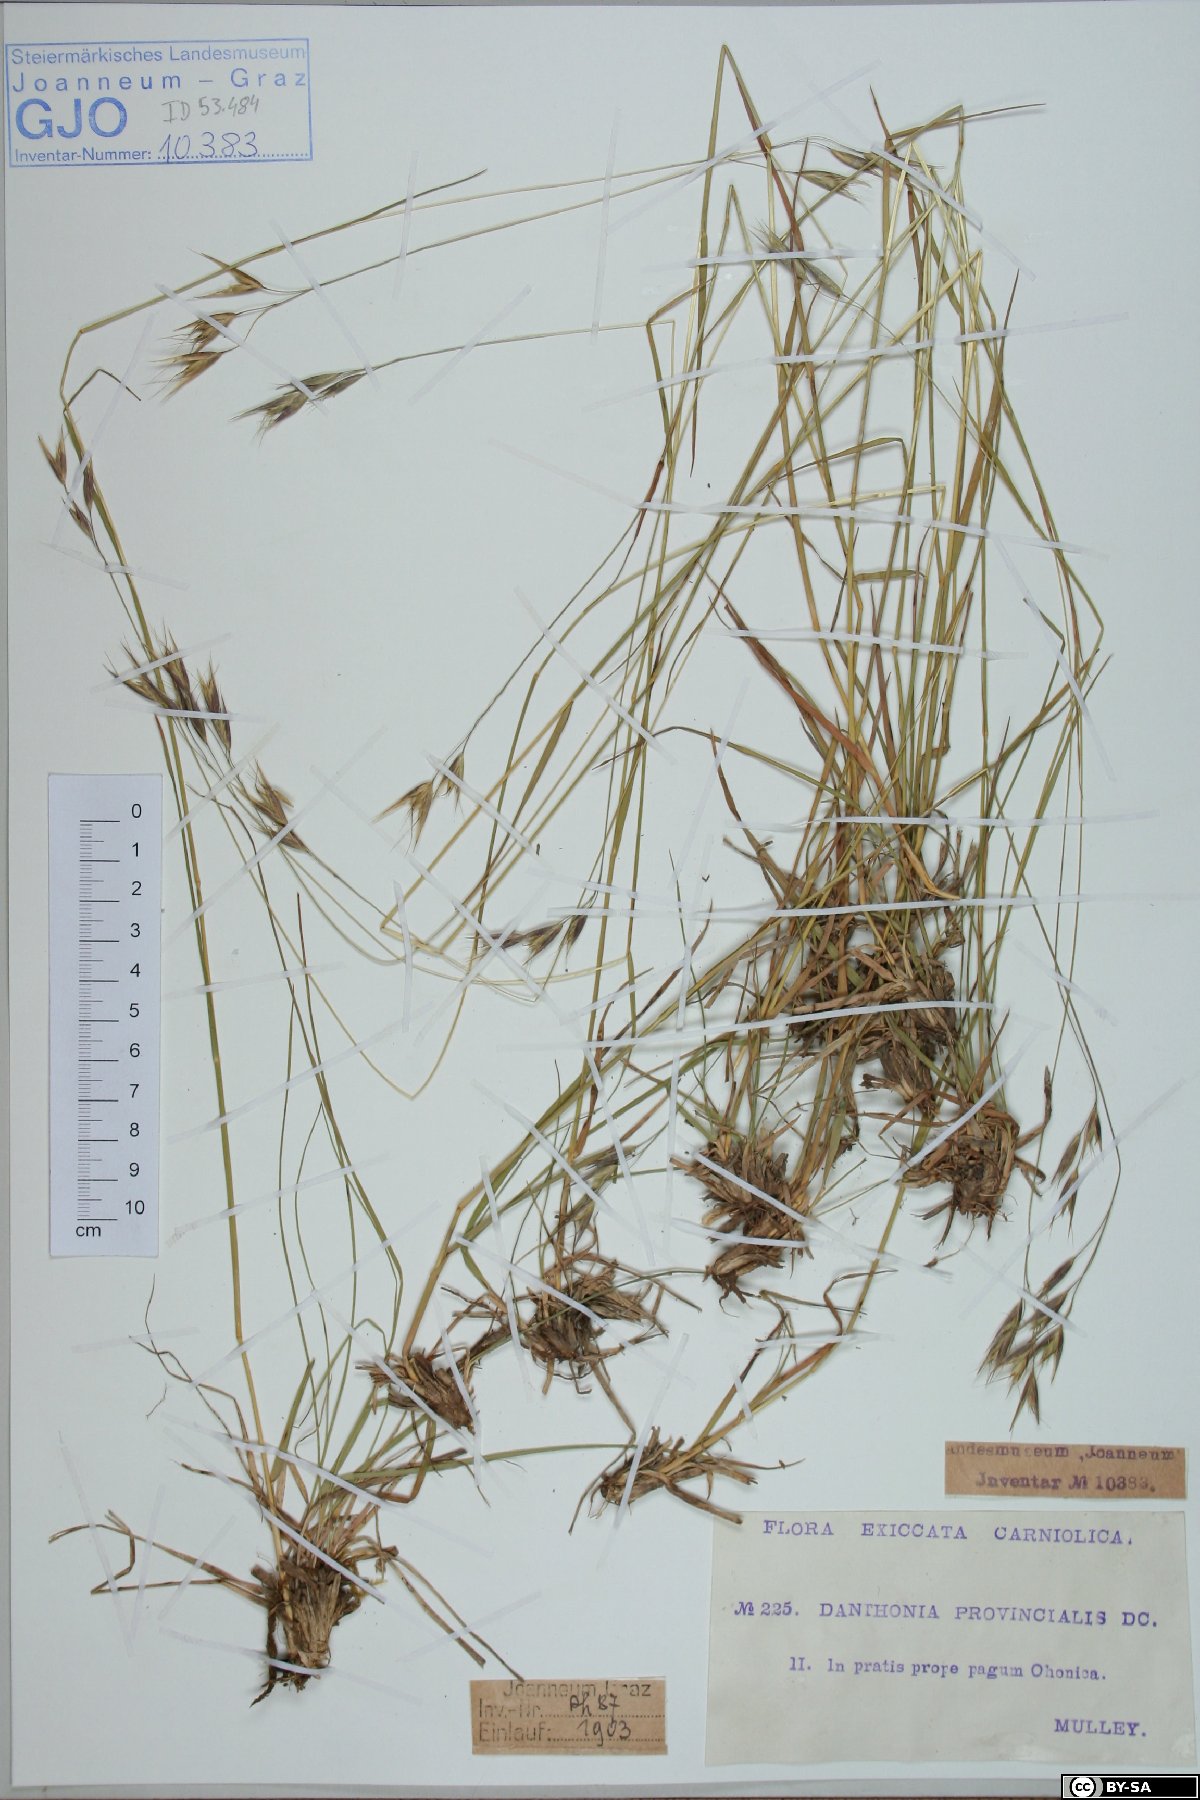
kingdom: Plantae
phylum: Tracheophyta
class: Liliopsida
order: Poales
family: Poaceae
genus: Danthonia
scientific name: Danthonia alpina
